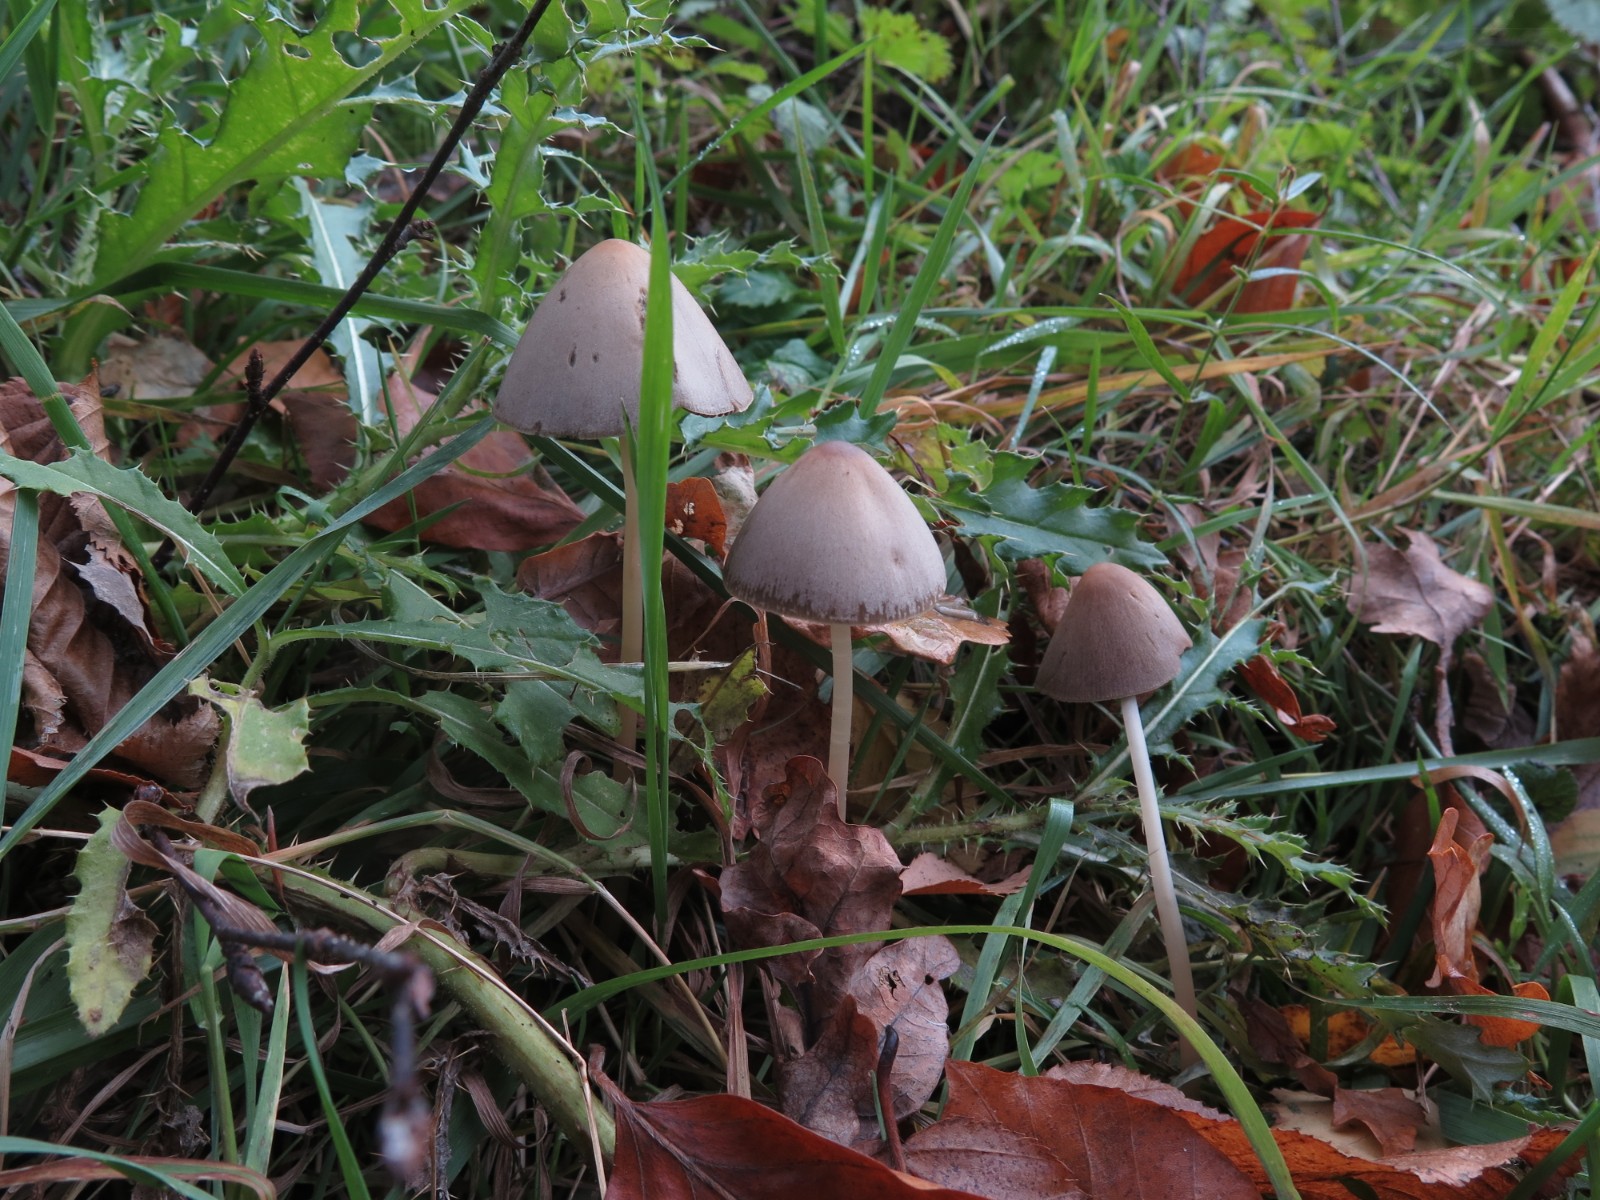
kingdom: Fungi
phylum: Basidiomycota
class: Agaricomycetes
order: Agaricales
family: Psathyrellaceae
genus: Parasola
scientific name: Parasola conopilea
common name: kegle-hjulhat
